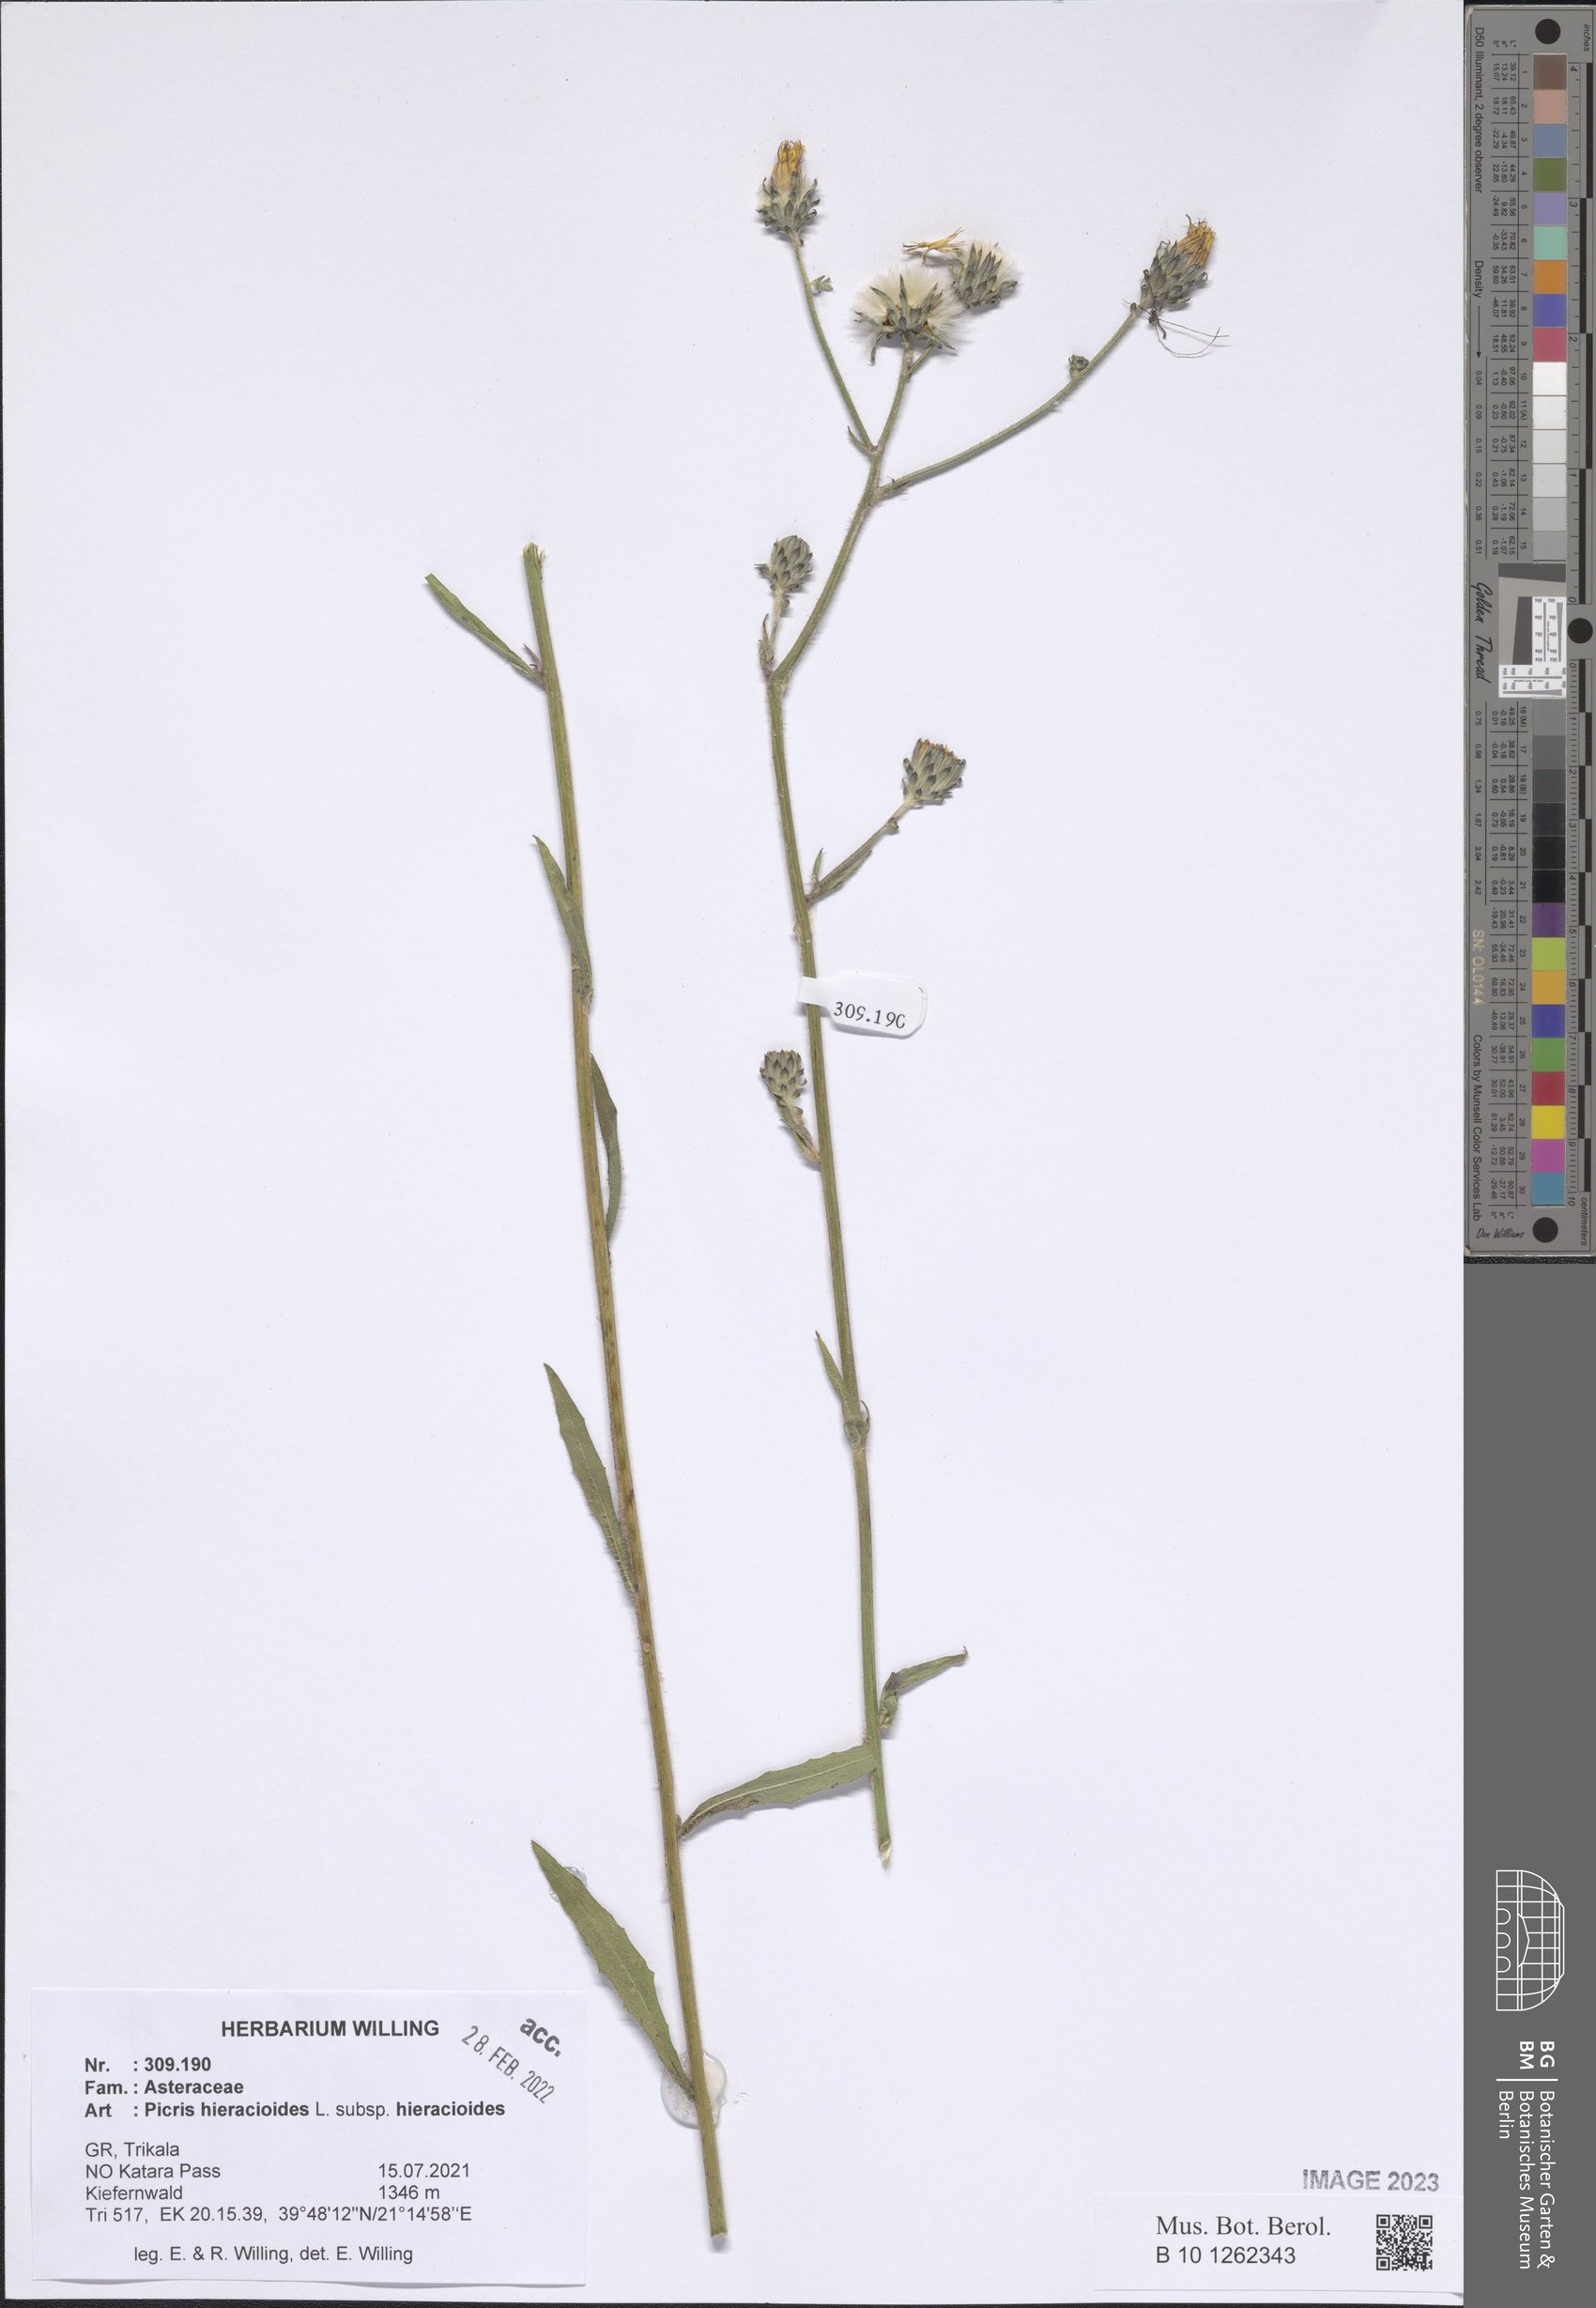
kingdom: Plantae
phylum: Tracheophyta
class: Magnoliopsida
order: Asterales
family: Asteraceae
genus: Picris
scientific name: Picris hieracioides
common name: Hawkweed oxtongue
